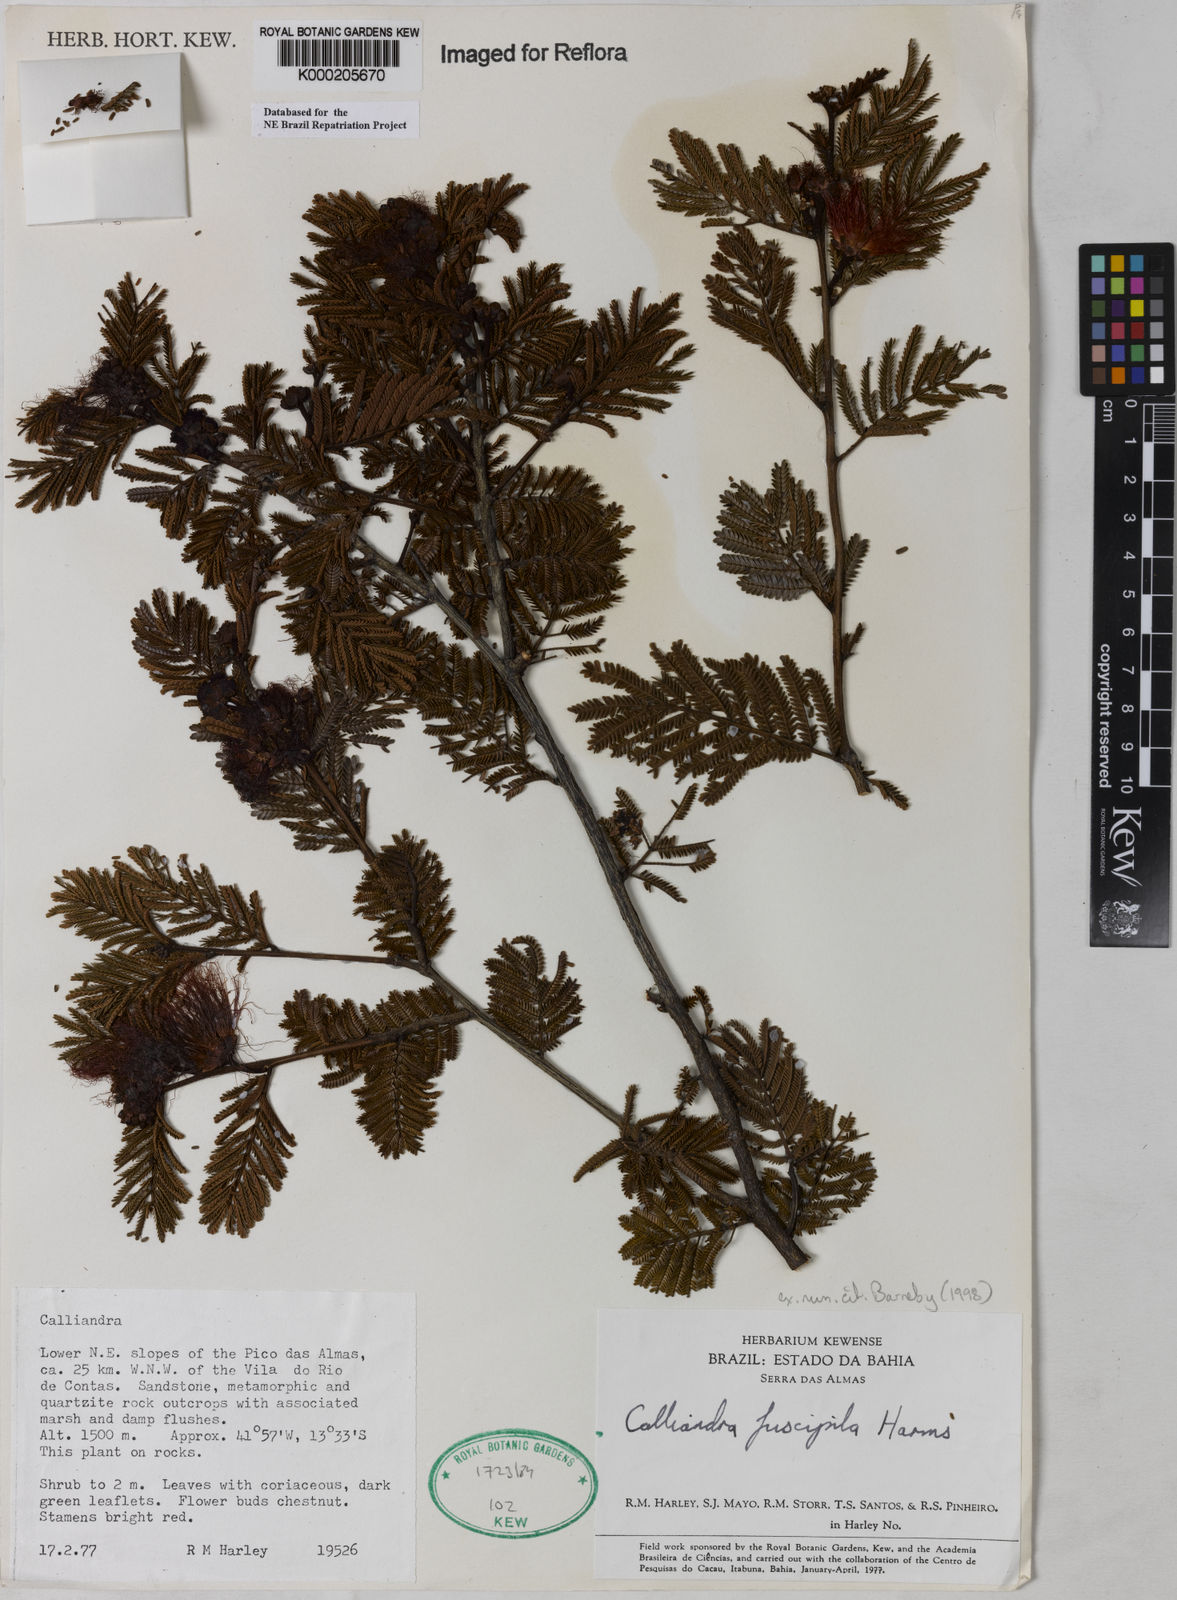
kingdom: Plantae
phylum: Tracheophyta
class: Magnoliopsida
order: Fabales
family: Fabaceae
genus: Calliandra
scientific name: Calliandra fuscipila
